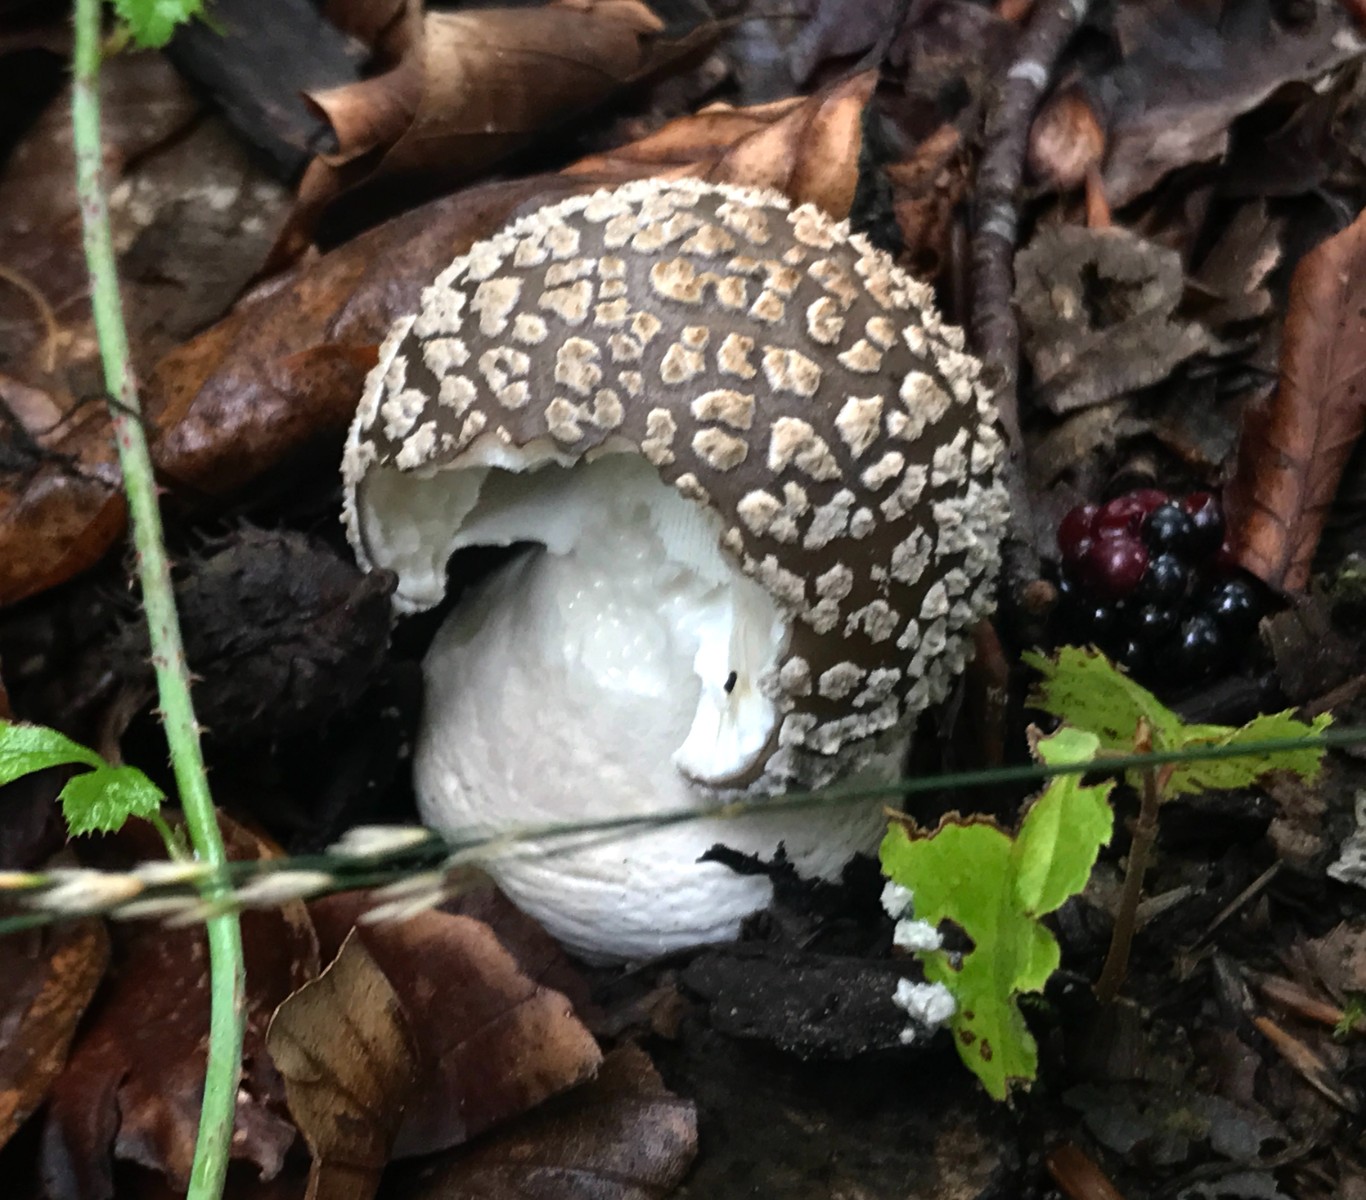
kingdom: Fungi
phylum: Basidiomycota
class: Agaricomycetes
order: Agaricales
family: Amanitaceae
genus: Amanita
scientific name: Amanita pantherina
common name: panter-fluesvamp
